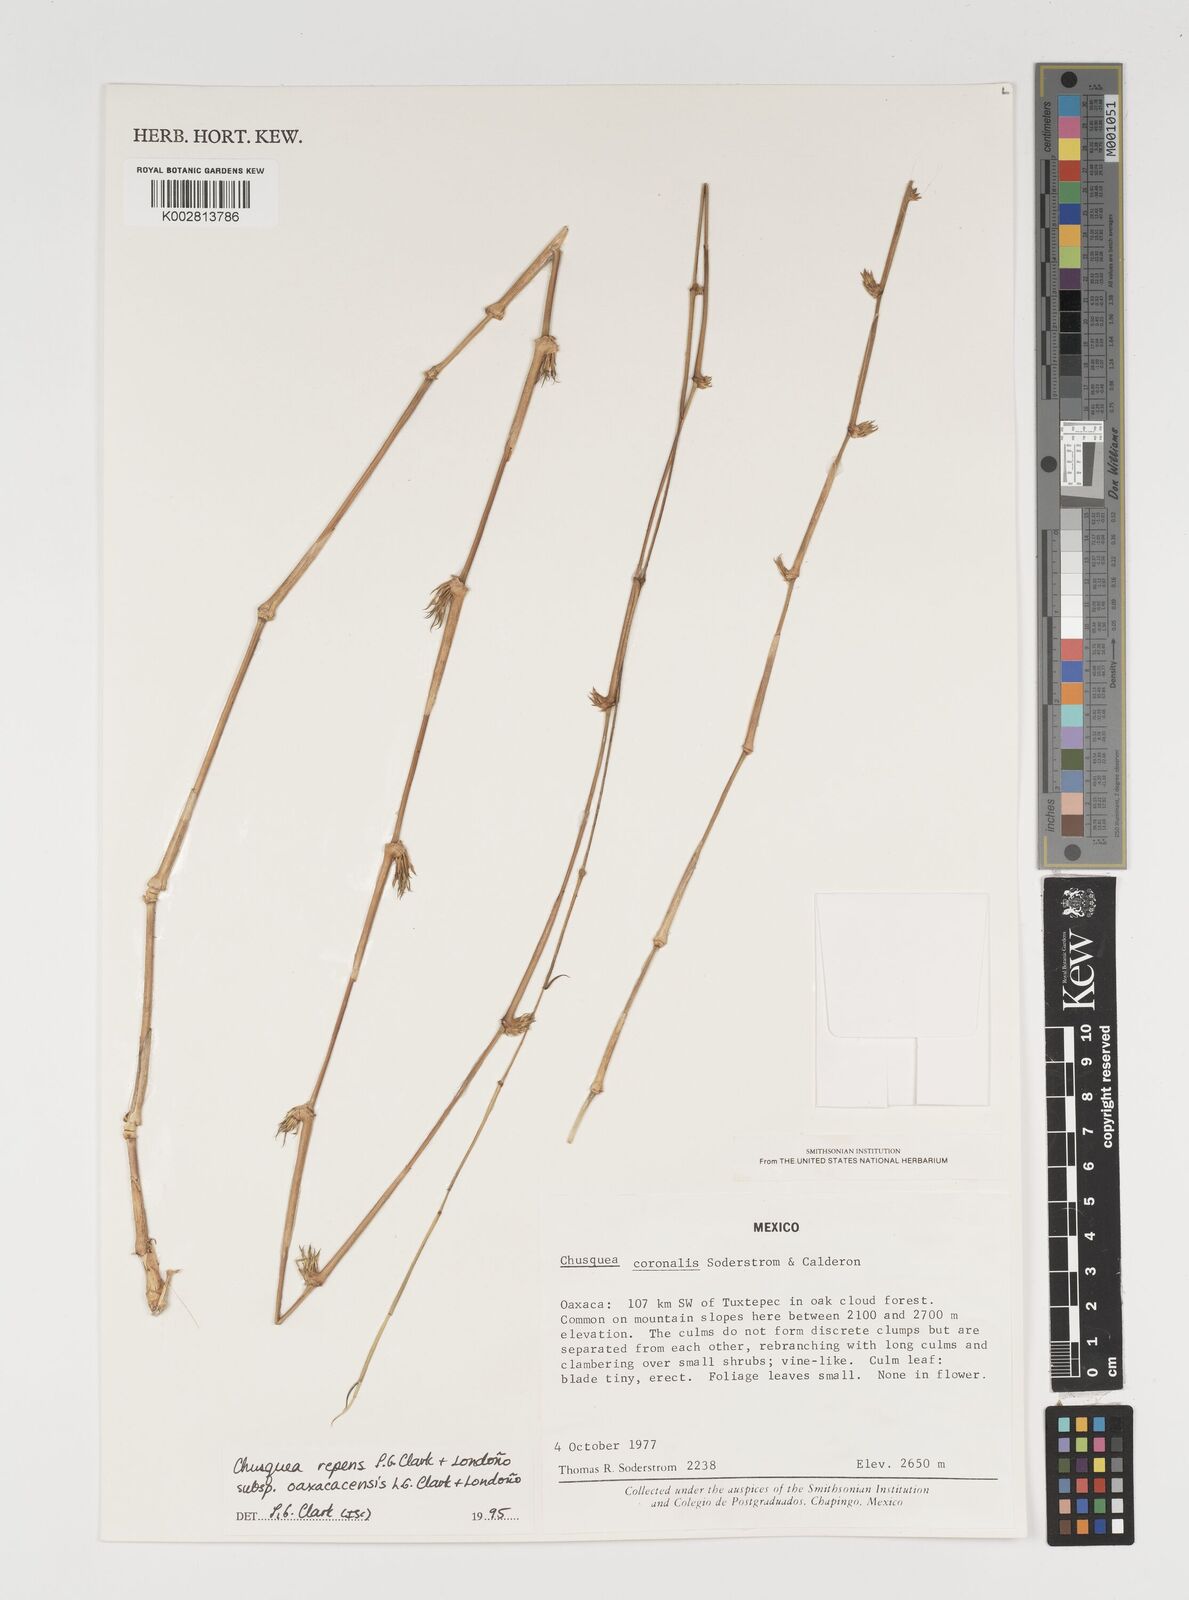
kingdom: Plantae
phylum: Tracheophyta
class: Liliopsida
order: Poales
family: Poaceae
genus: Chusquea
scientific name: Chusquea repens
